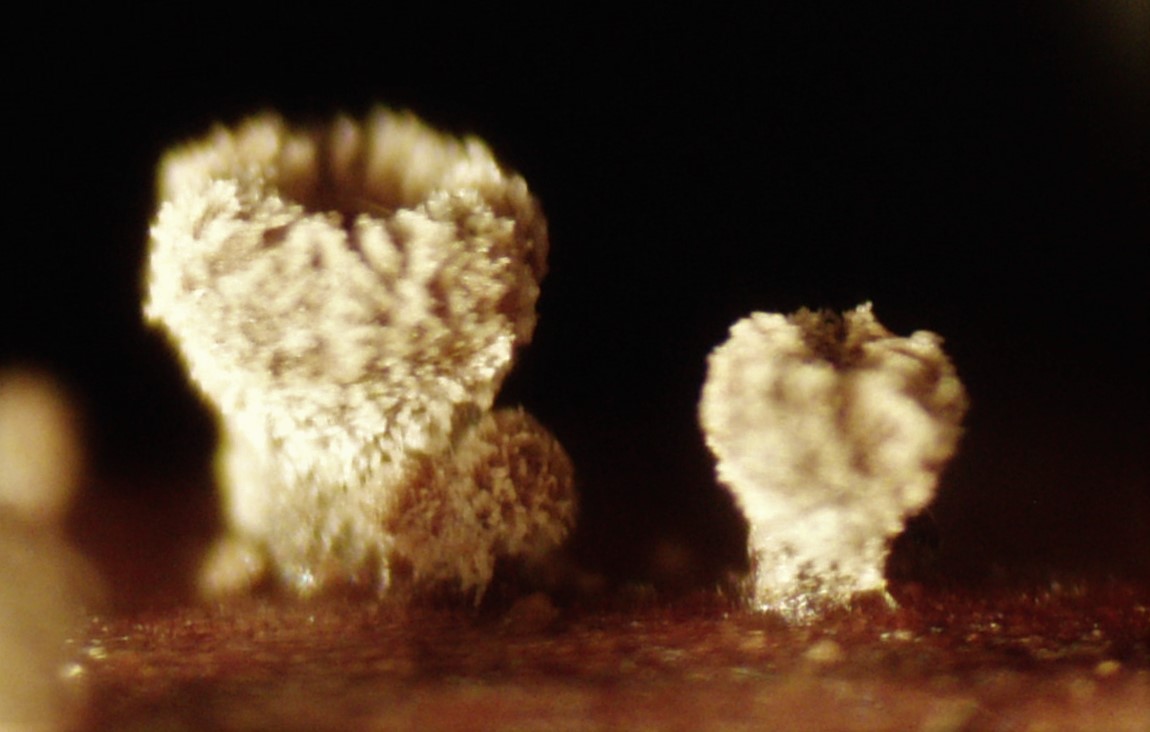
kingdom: Fungi
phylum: Ascomycota
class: Leotiomycetes
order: Helotiales
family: Lachnaceae
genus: Brunnipila
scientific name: Brunnipila clandestina
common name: hindbær-frynseskive
